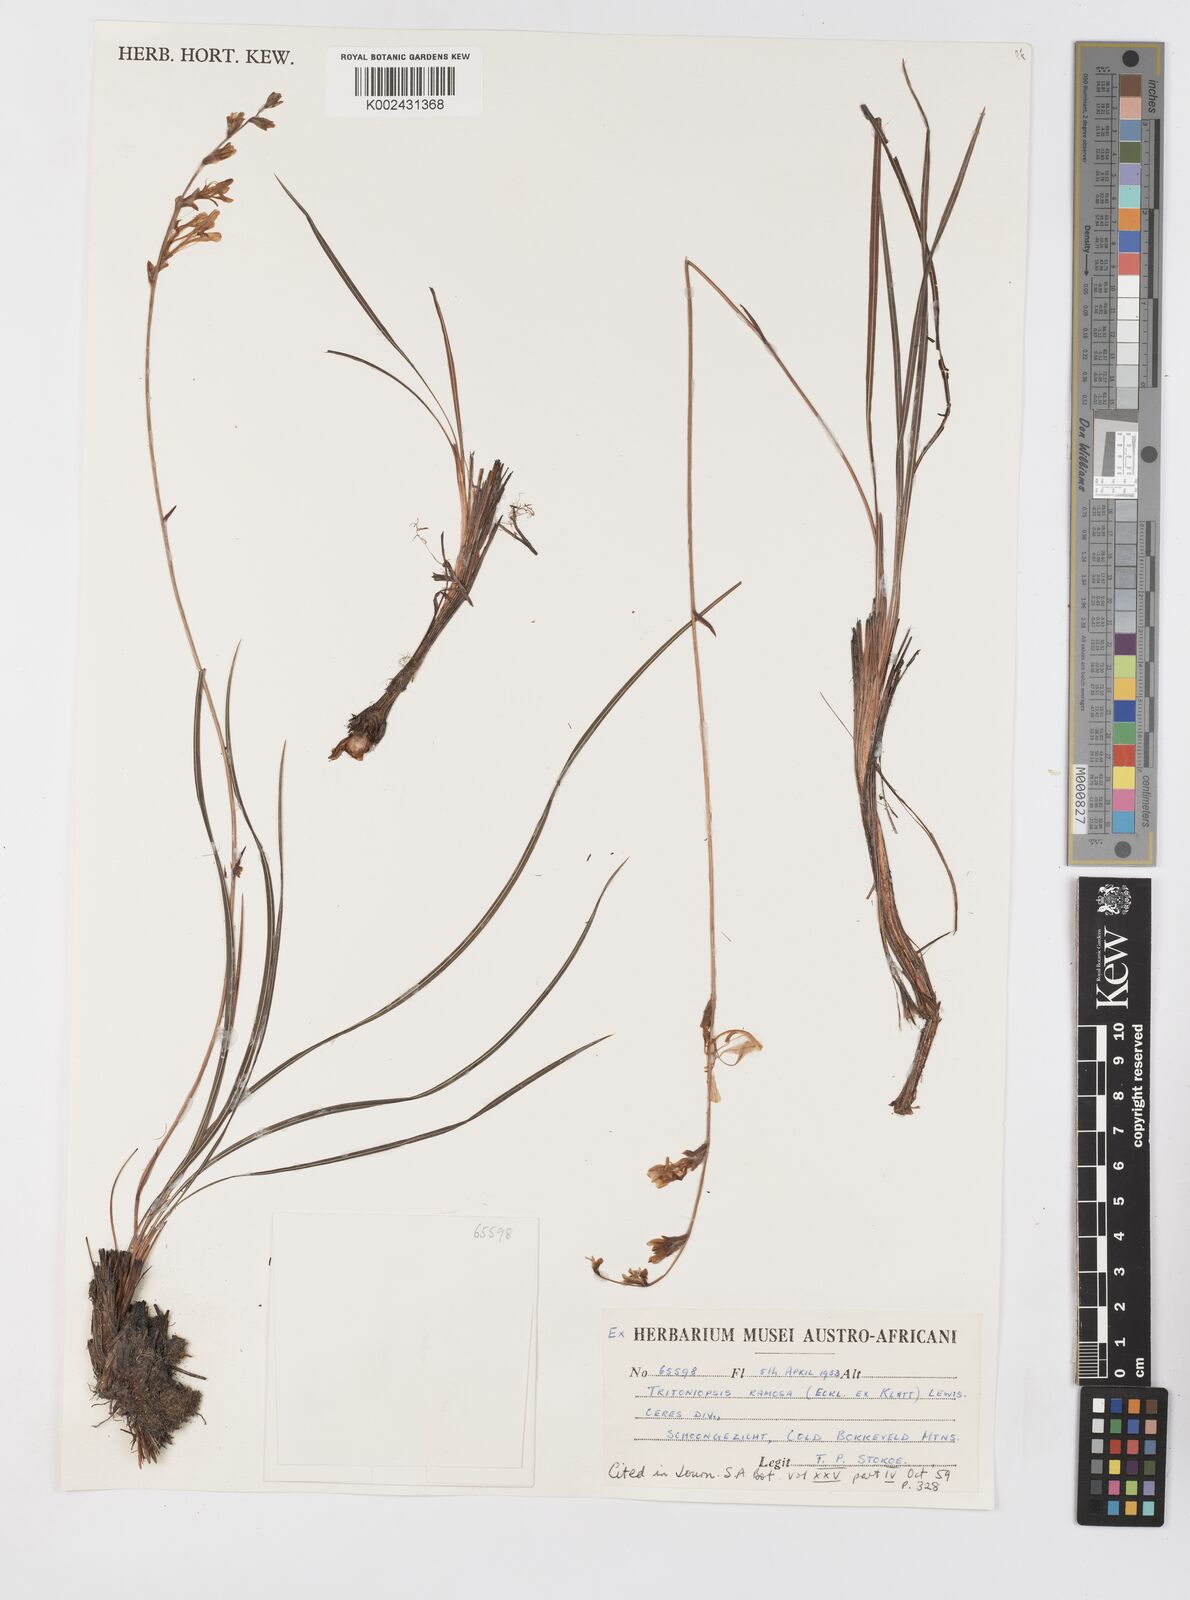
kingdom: Plantae
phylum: Tracheophyta
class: Liliopsida
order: Asparagales
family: Iridaceae
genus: Tritoniopsis
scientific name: Tritoniopsis ramosa
